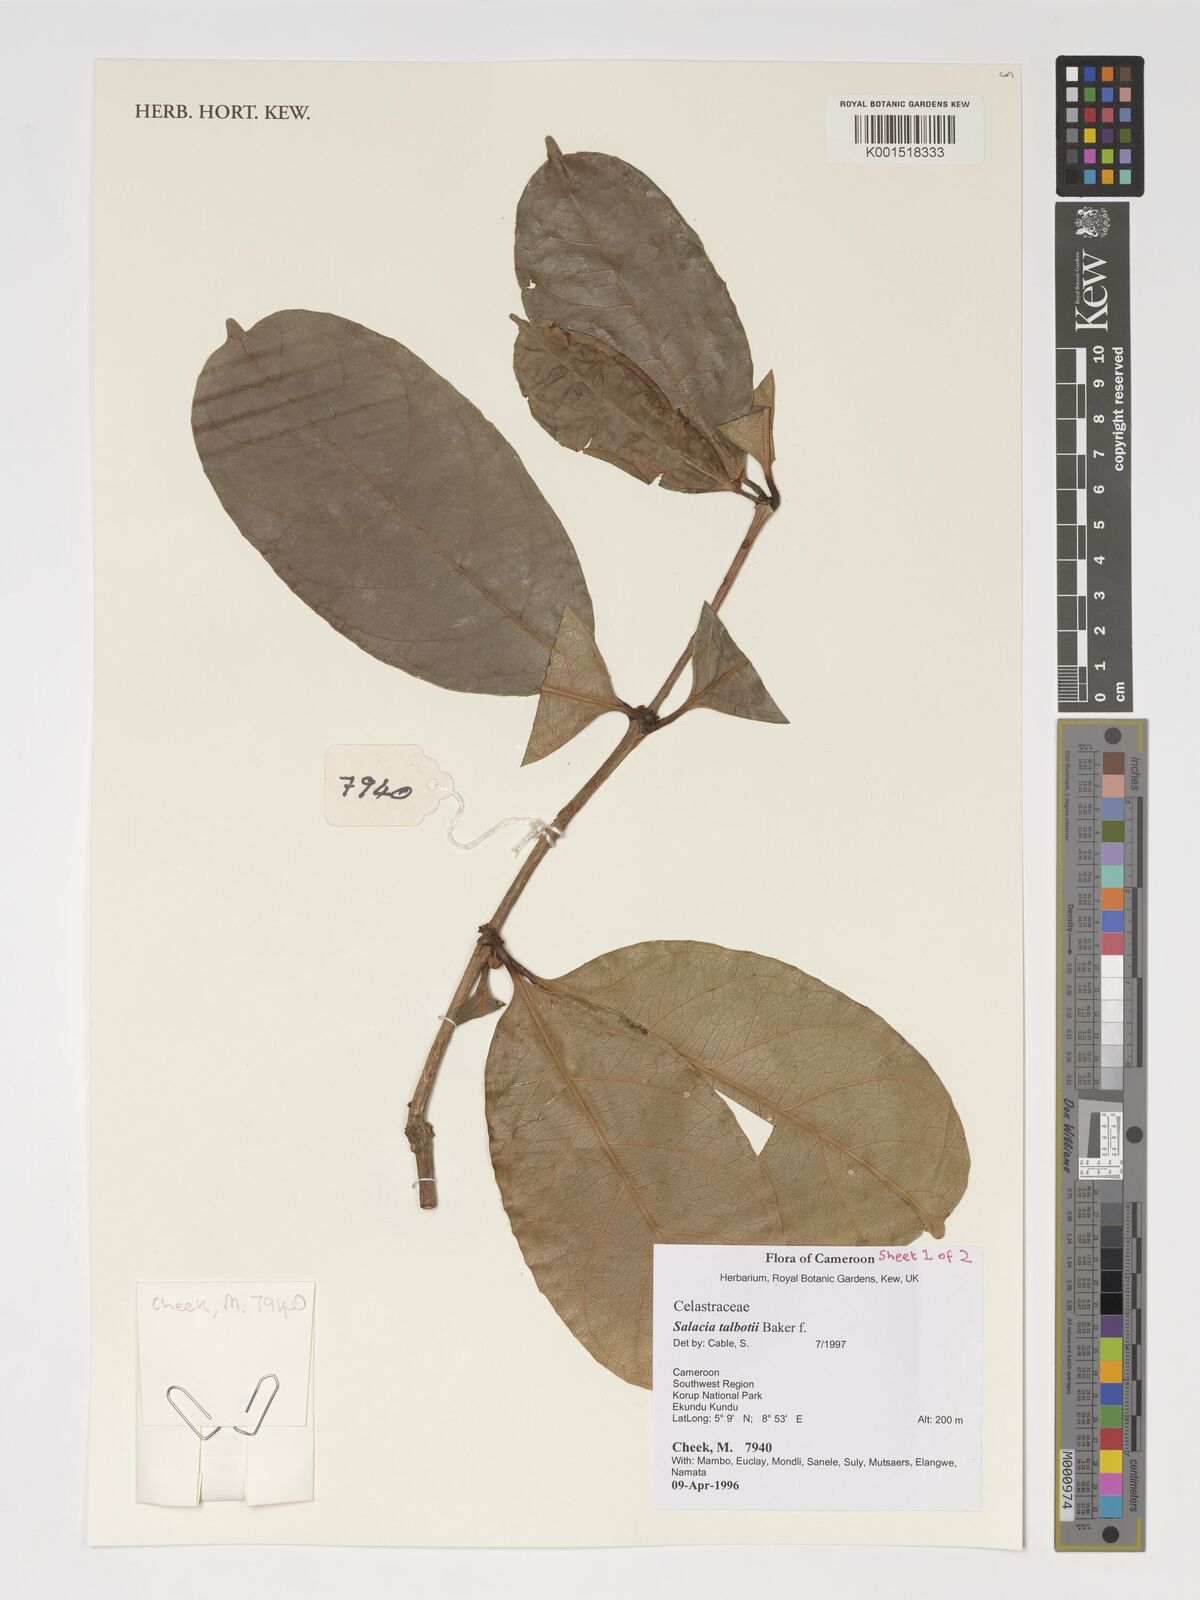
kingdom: Plantae
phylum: Tracheophyta
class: Magnoliopsida
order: Celastrales
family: Celastraceae
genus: Salacia
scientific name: Salacia talbotii
